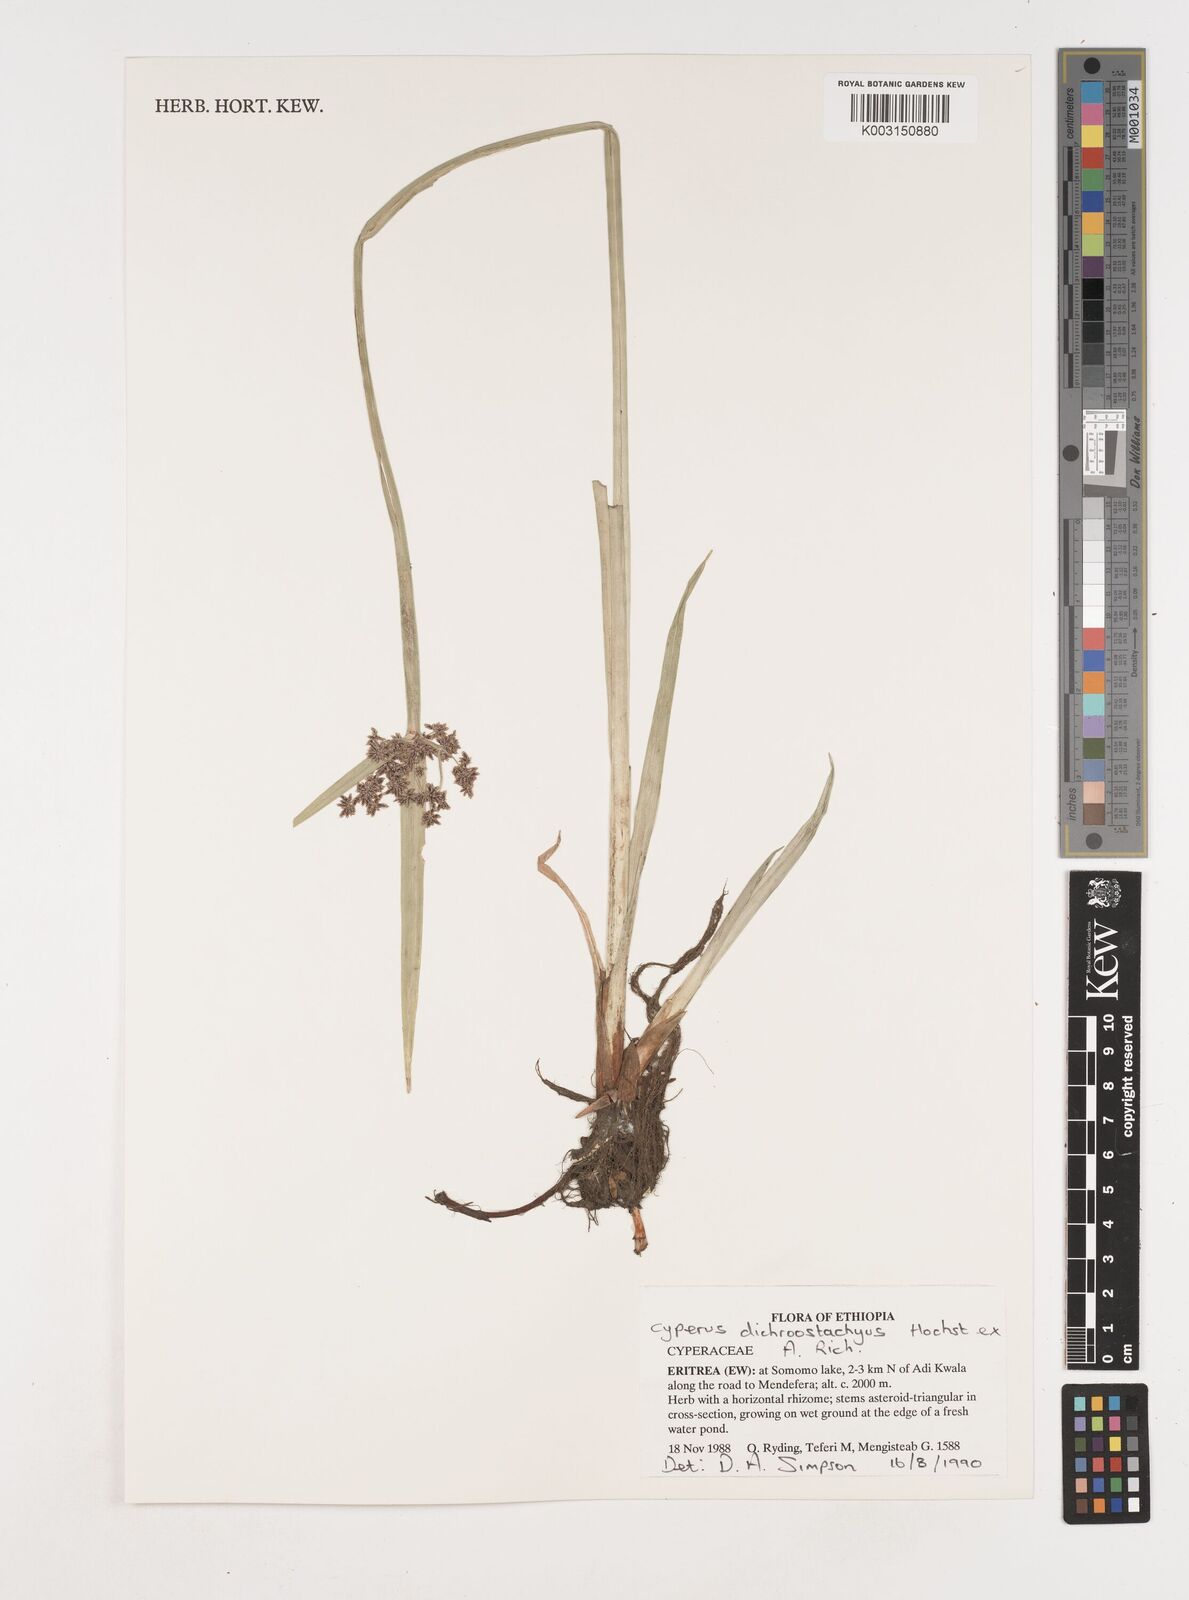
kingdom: Plantae
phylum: Tracheophyta
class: Liliopsida
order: Poales
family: Cyperaceae
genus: Cyperus
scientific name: Cyperus dichrostachyus
